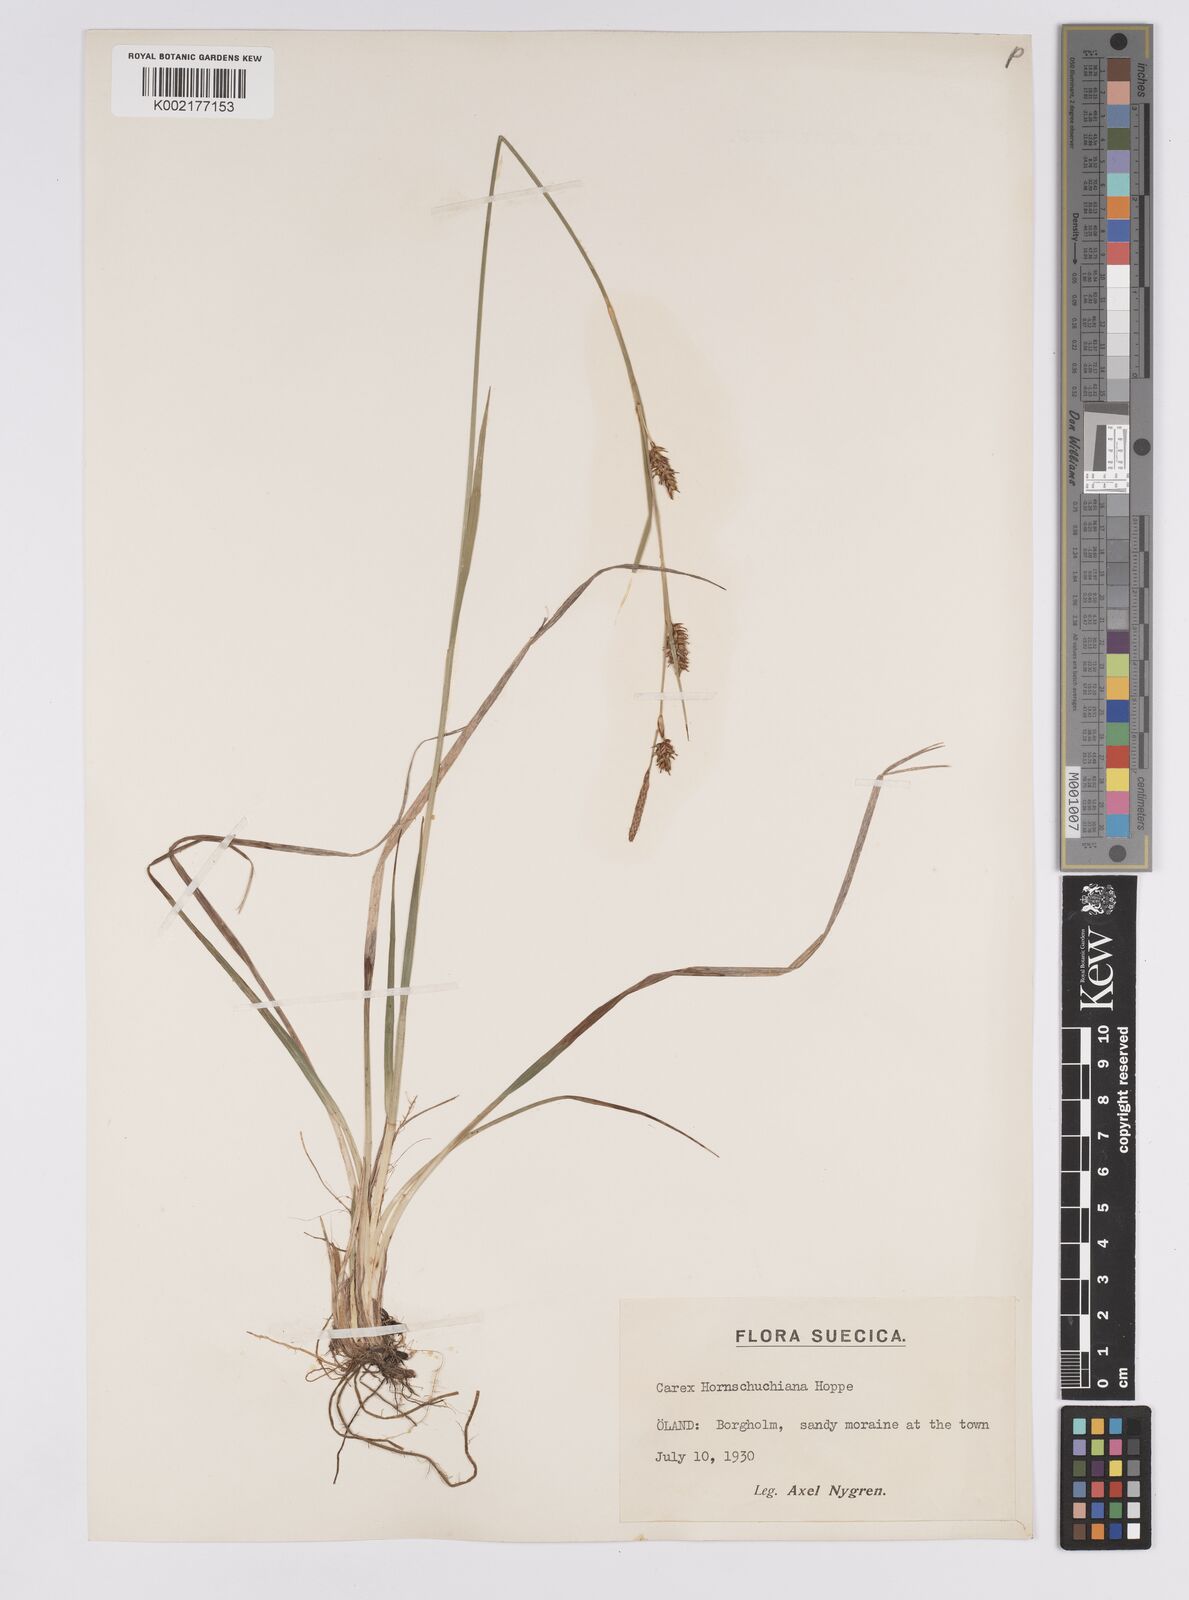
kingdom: Plantae
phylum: Tracheophyta
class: Liliopsida
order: Poales
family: Cyperaceae
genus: Carex
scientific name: Carex hostiana
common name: Tawny sedge
